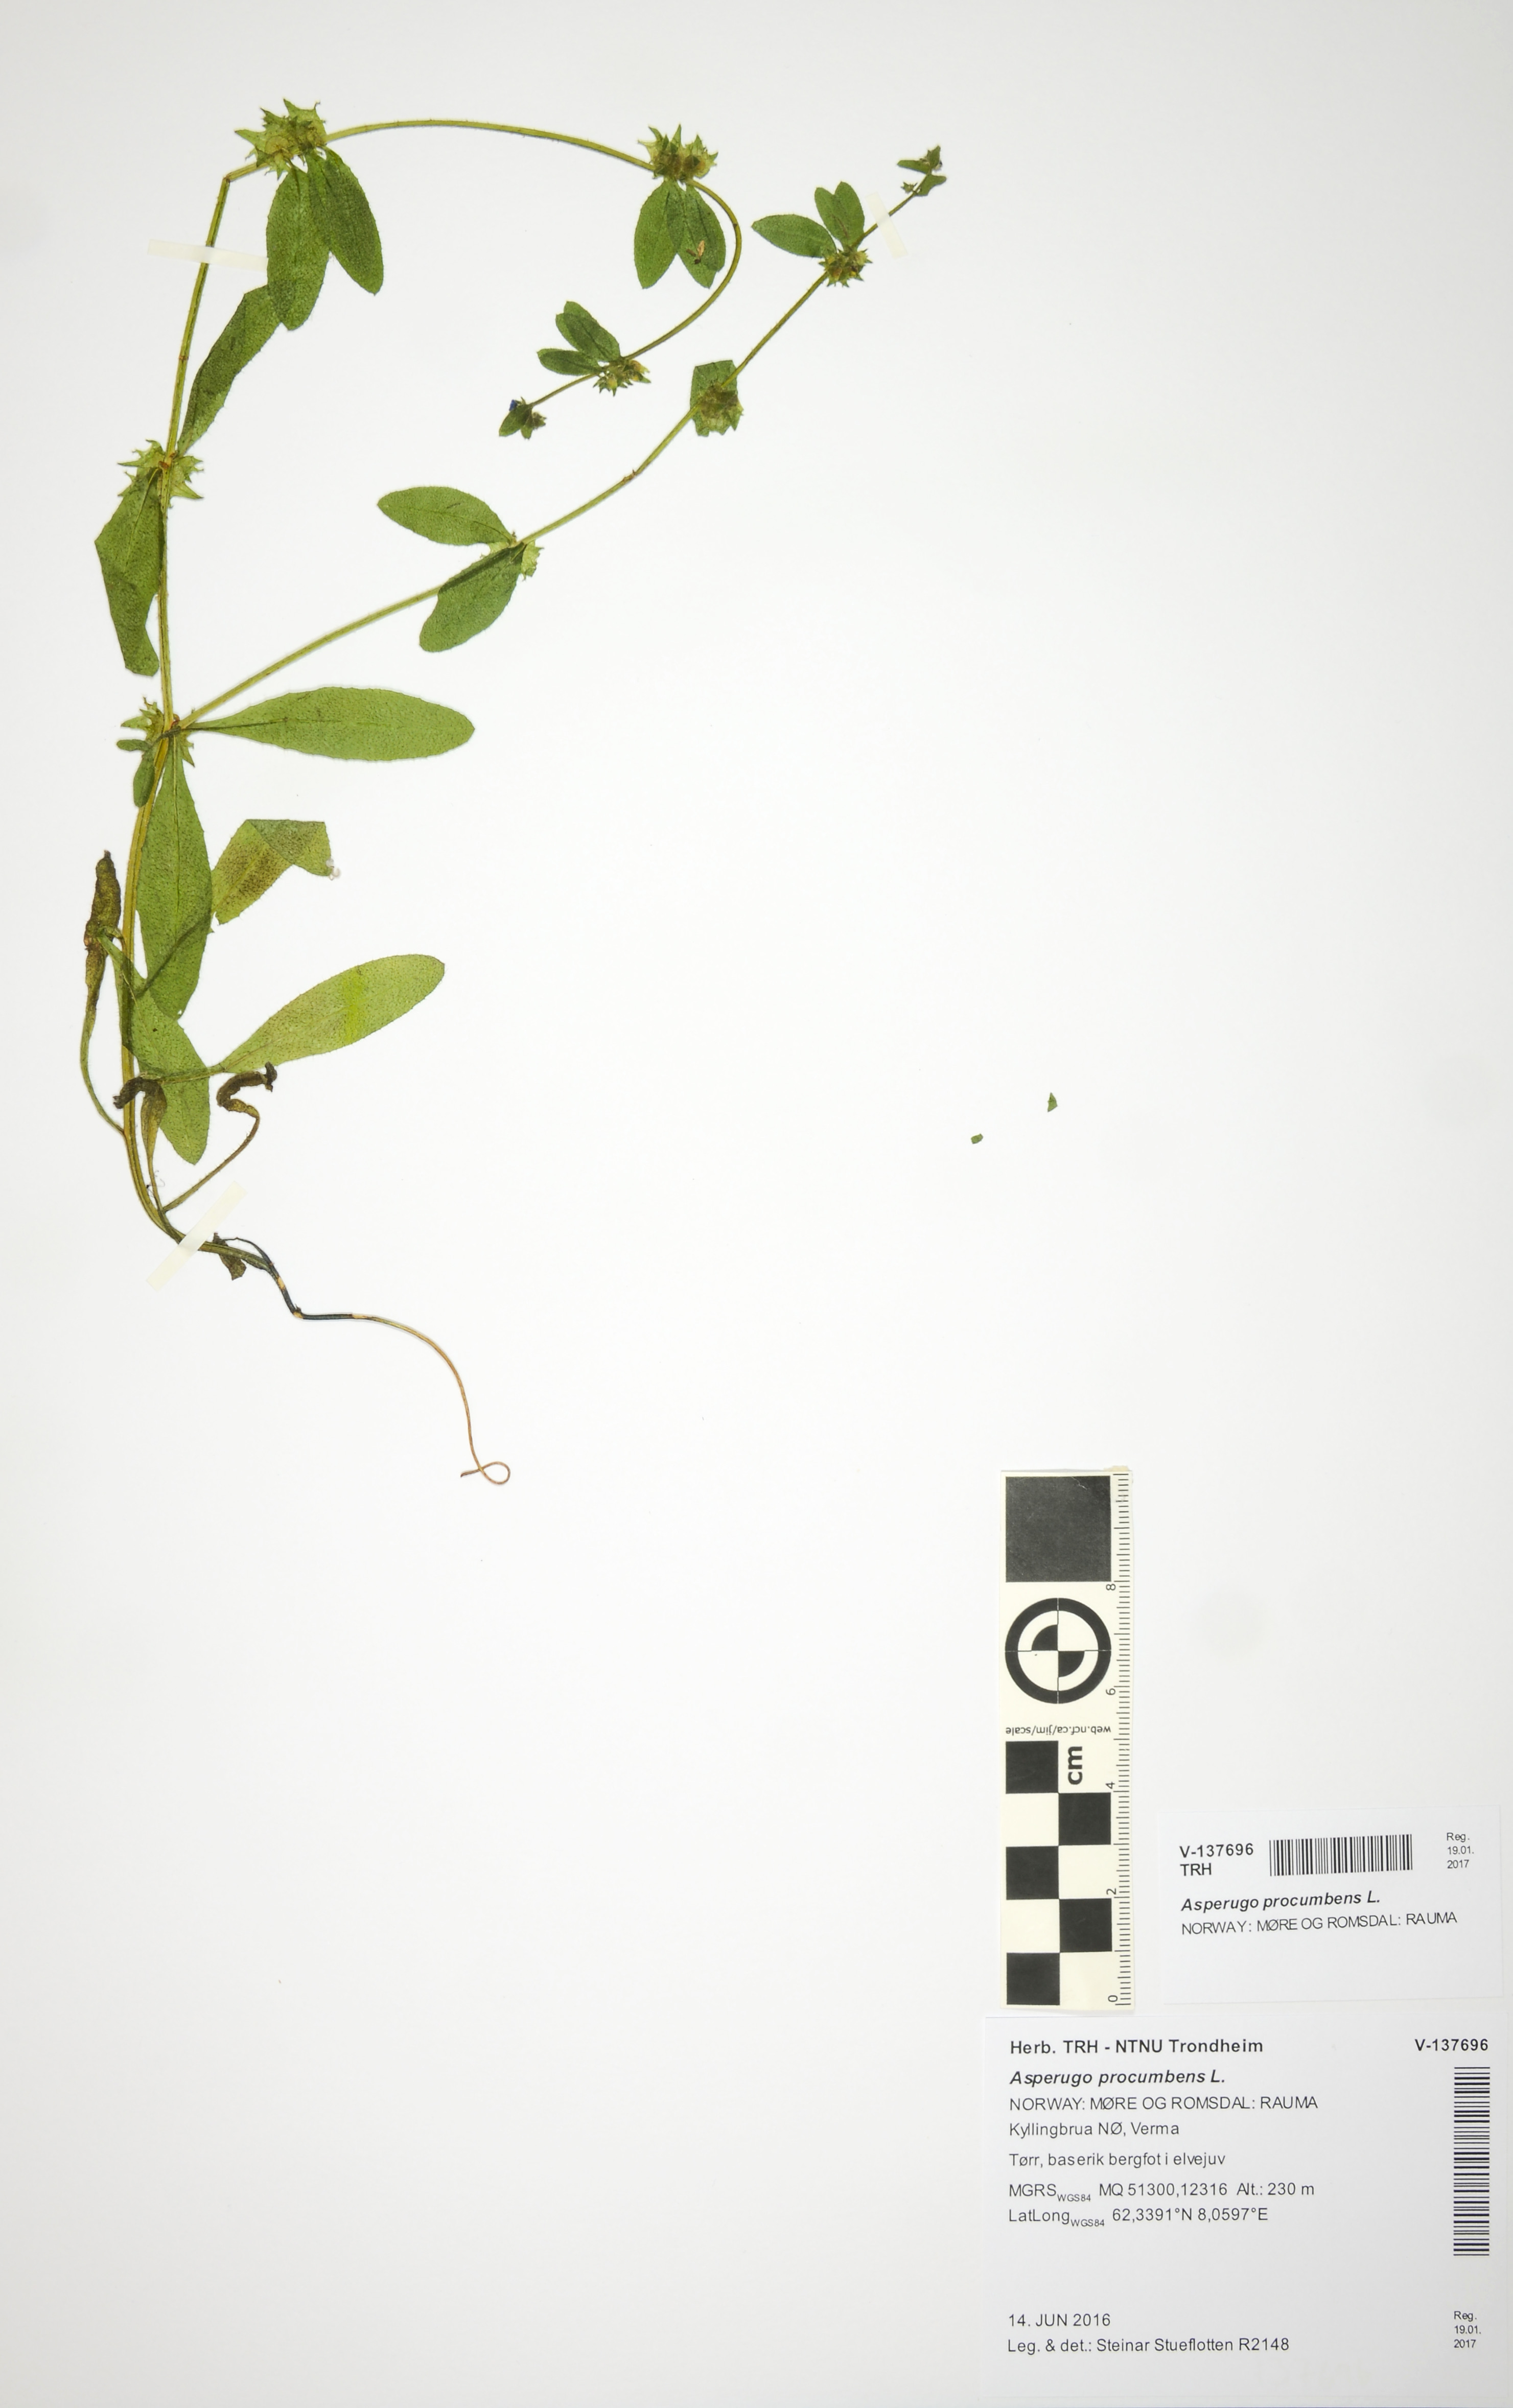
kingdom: Plantae
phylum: Tracheophyta
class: Magnoliopsida
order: Boraginales
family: Boraginaceae
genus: Asperugo
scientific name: Asperugo procumbens
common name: Madwort
